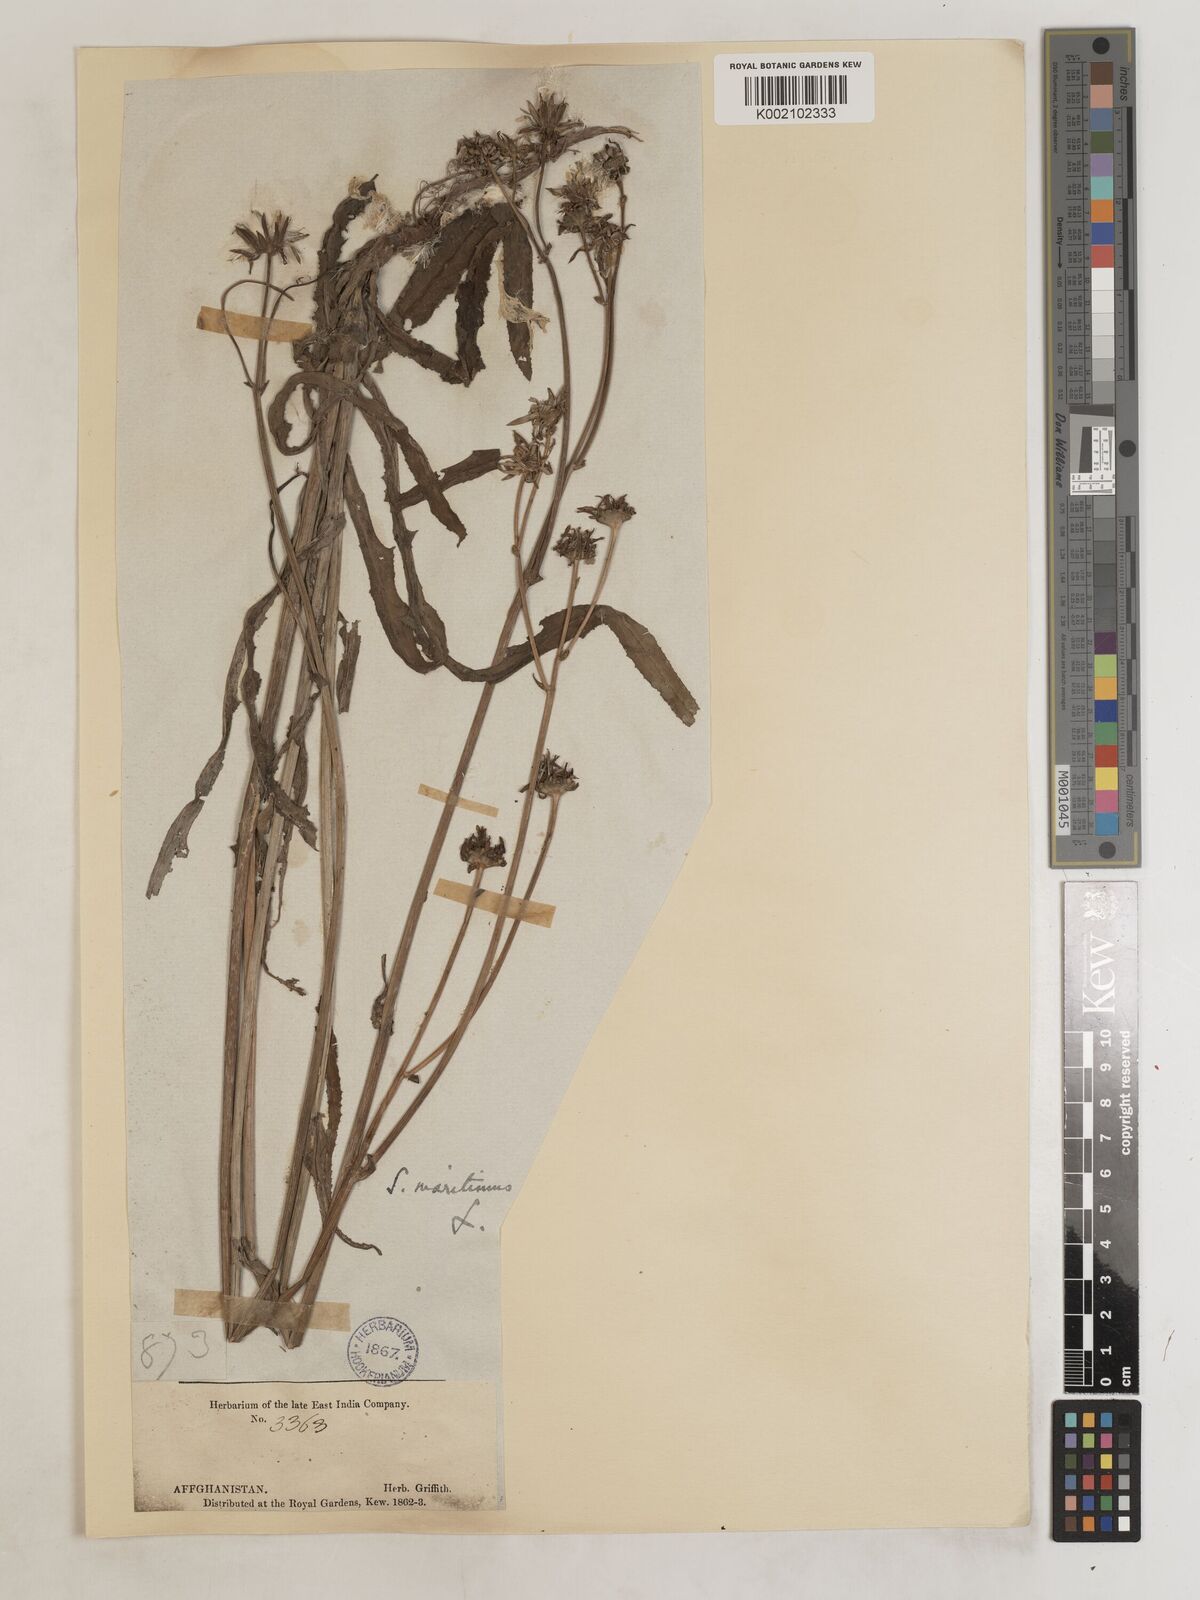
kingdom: Plantae
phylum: Tracheophyta
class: Magnoliopsida
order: Asterales
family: Asteraceae
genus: Sonchus
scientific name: Sonchus maritimus
